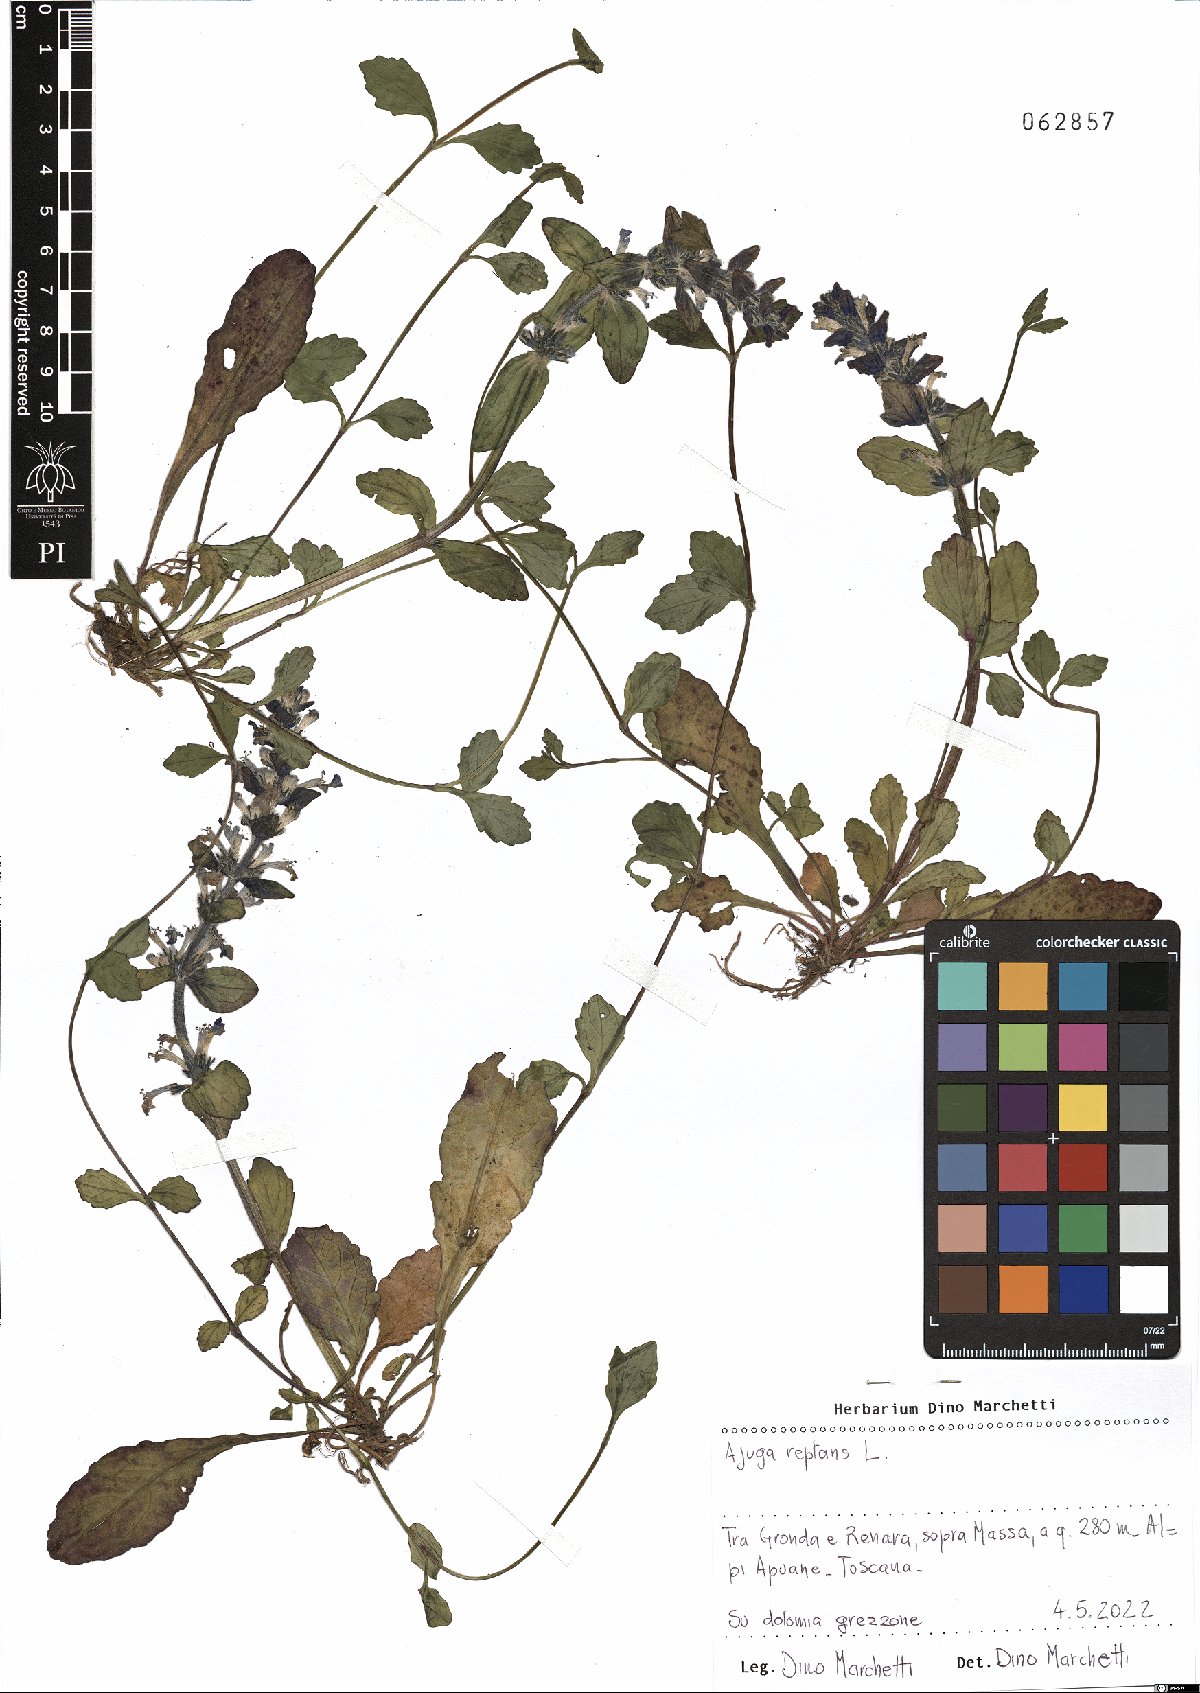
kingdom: Plantae
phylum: Tracheophyta
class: Magnoliopsida
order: Lamiales
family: Lamiaceae
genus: Ajuga
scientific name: Ajuga reptans
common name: Bugle
